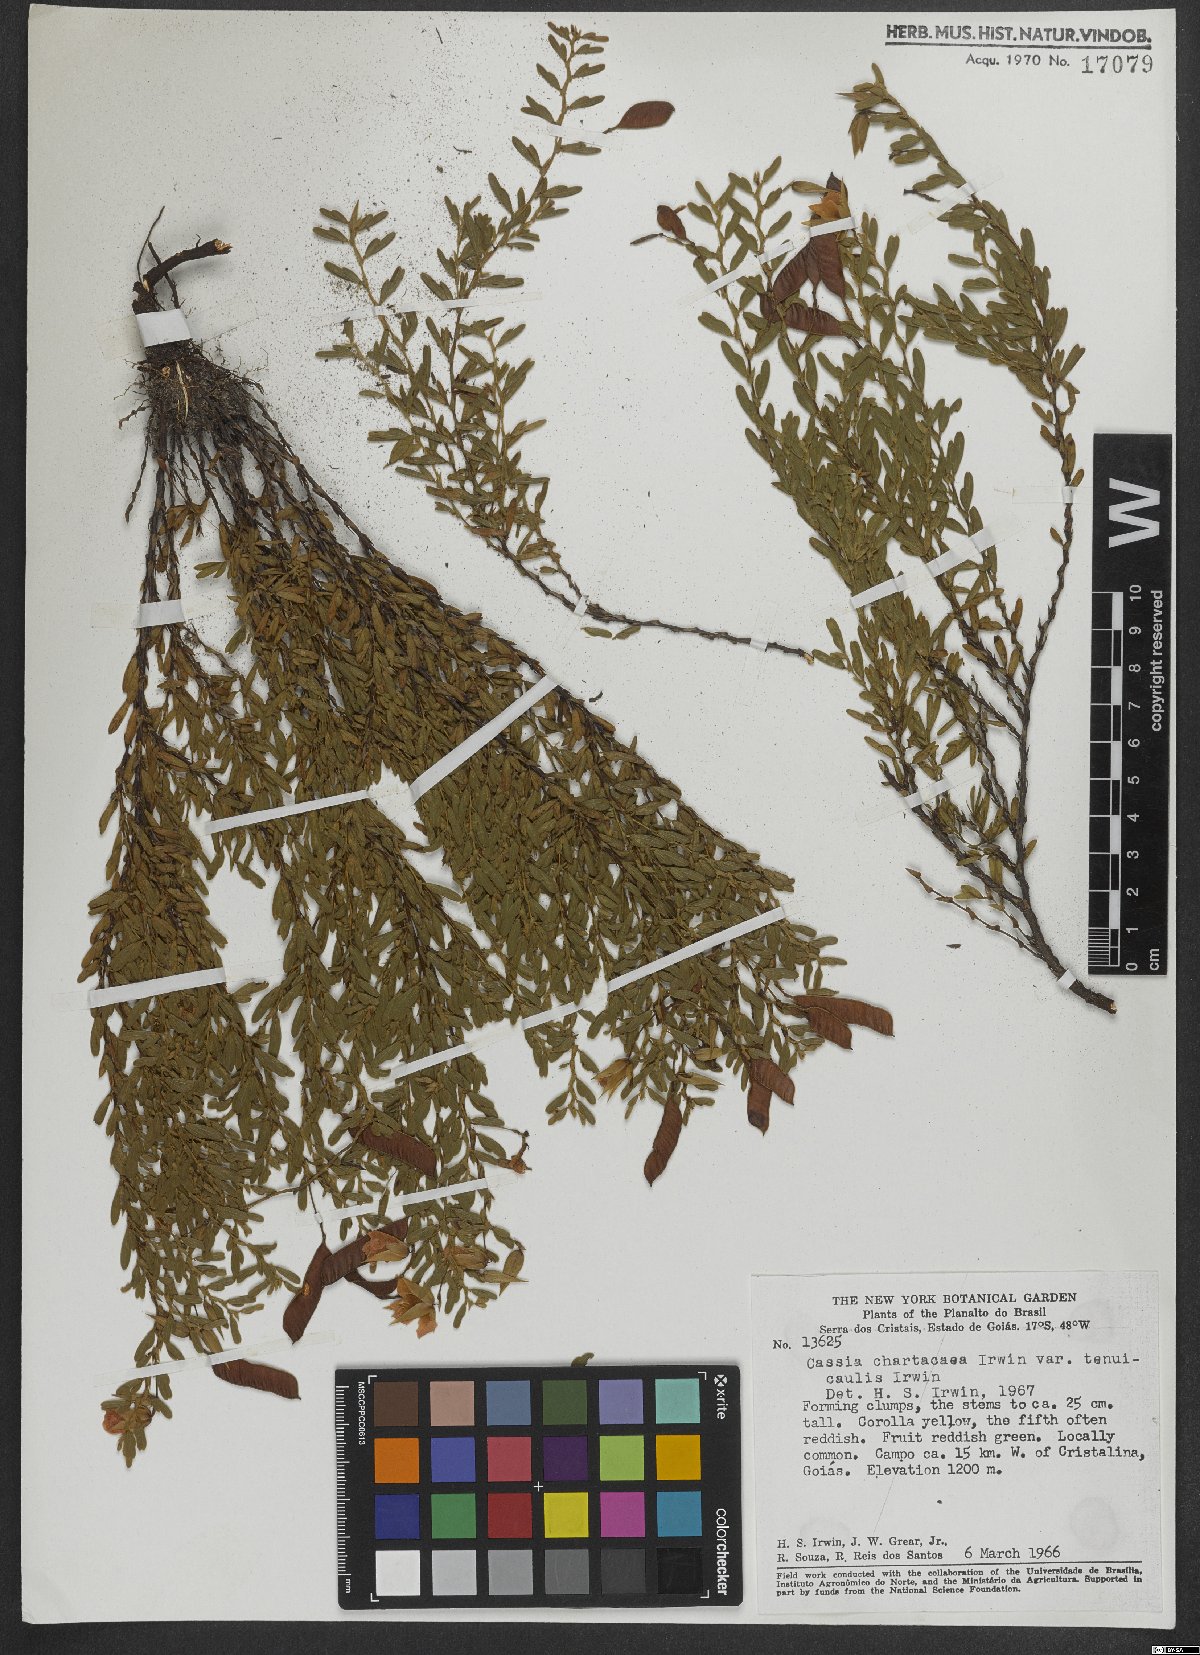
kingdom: Plantae
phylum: Tracheophyta
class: Magnoliopsida
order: Fabales
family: Fabaceae
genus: Chamaecrista
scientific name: Chamaecrista ramosa
